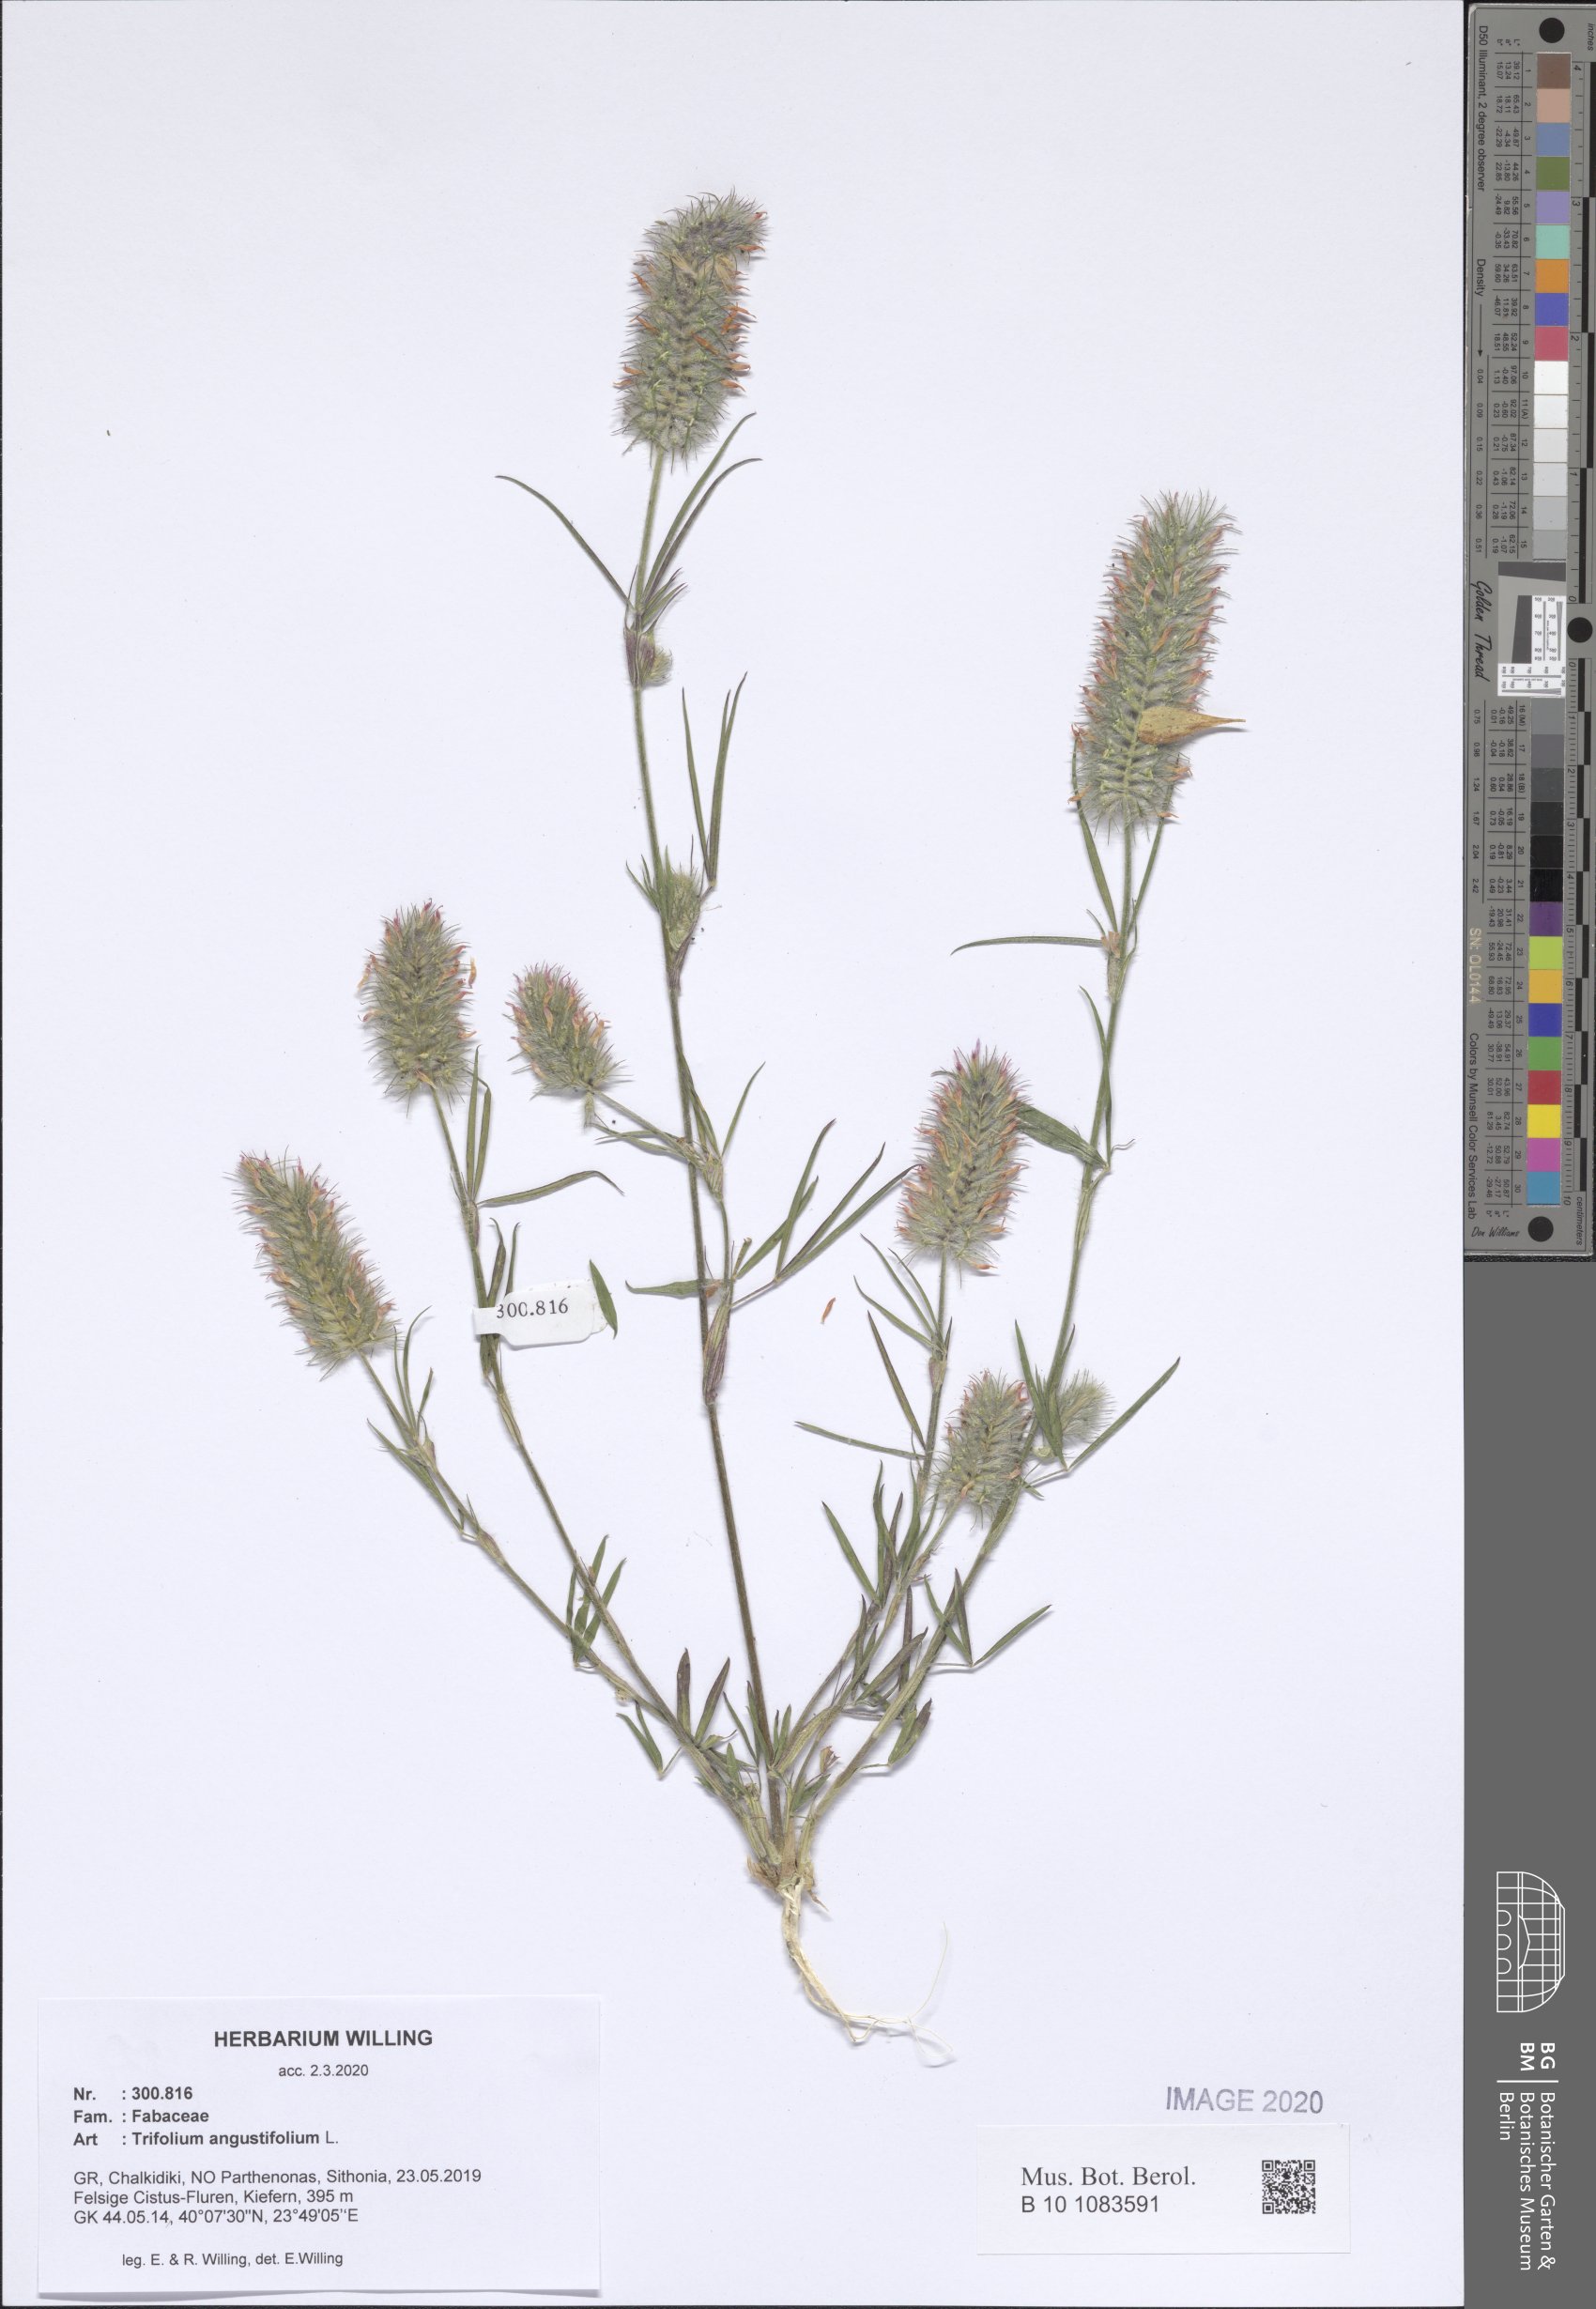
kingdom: Plantae
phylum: Tracheophyta
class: Magnoliopsida
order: Fabales
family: Fabaceae
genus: Trifolium
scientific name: Trifolium angustifolium
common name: Narrow clover
